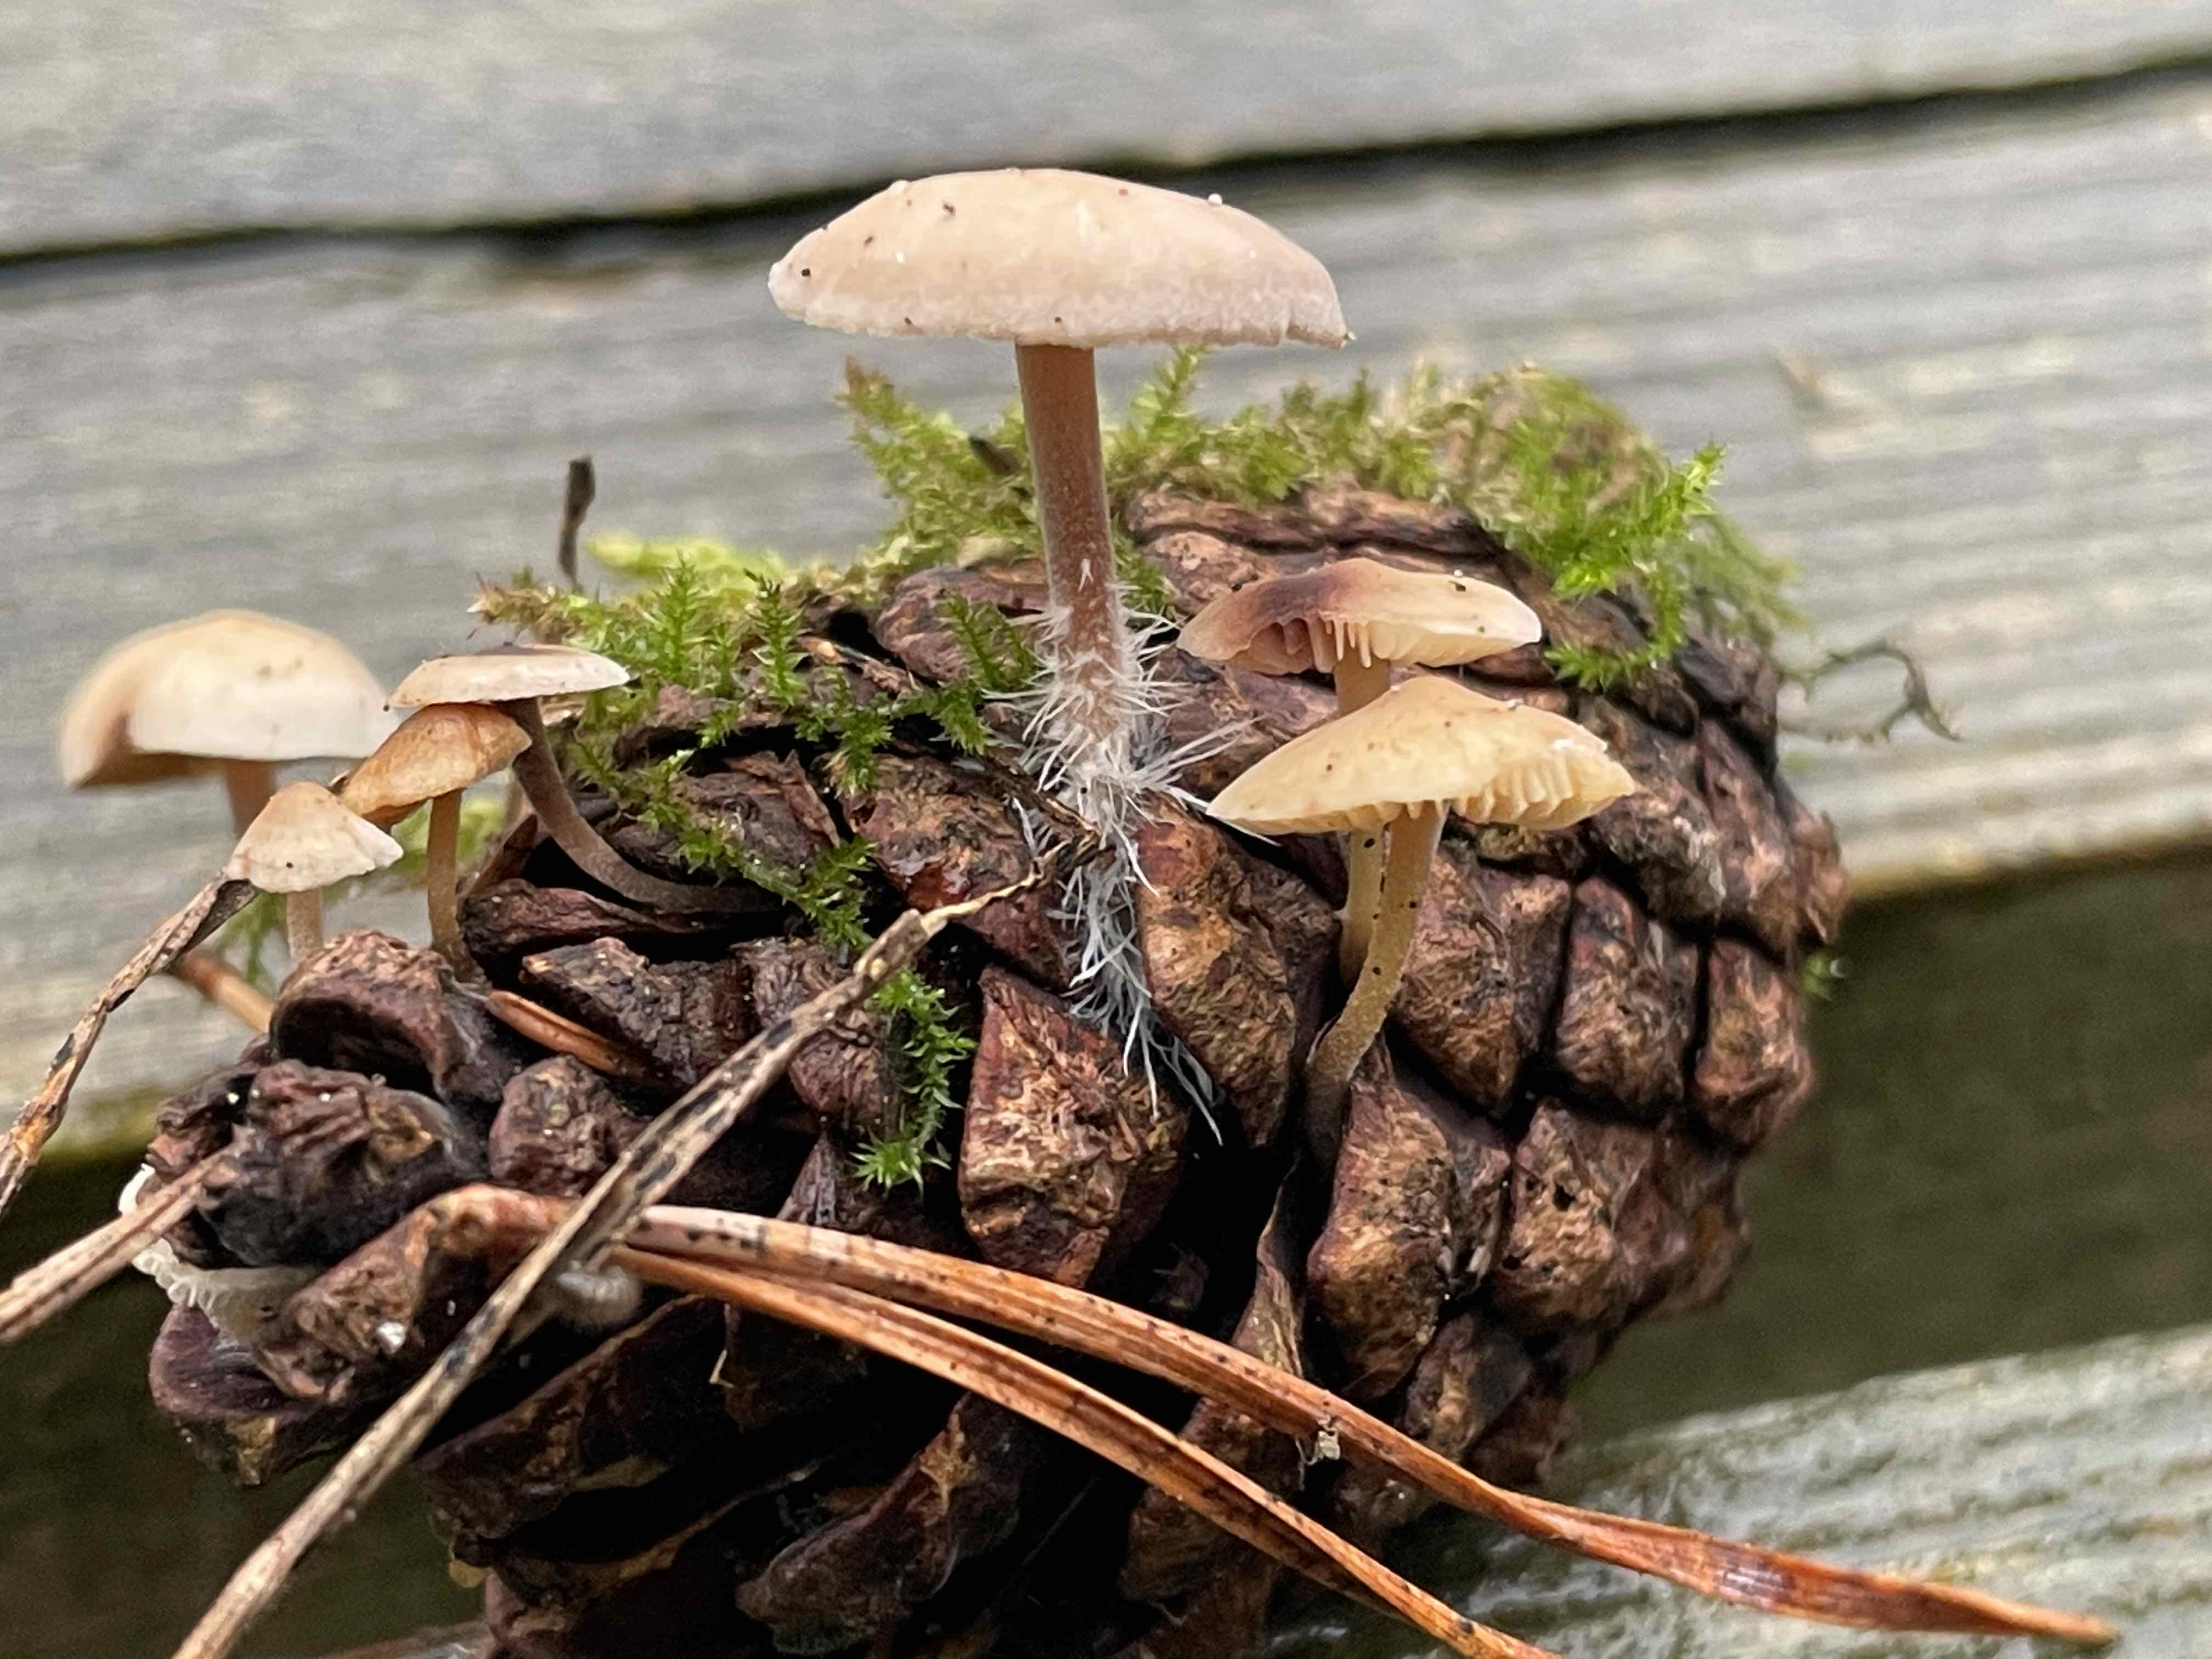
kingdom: Fungi
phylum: Basidiomycota
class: Agaricomycetes
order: Agaricales
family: Marasmiaceae
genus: Baeospora
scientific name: Baeospora myosura
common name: koglebruskhat
